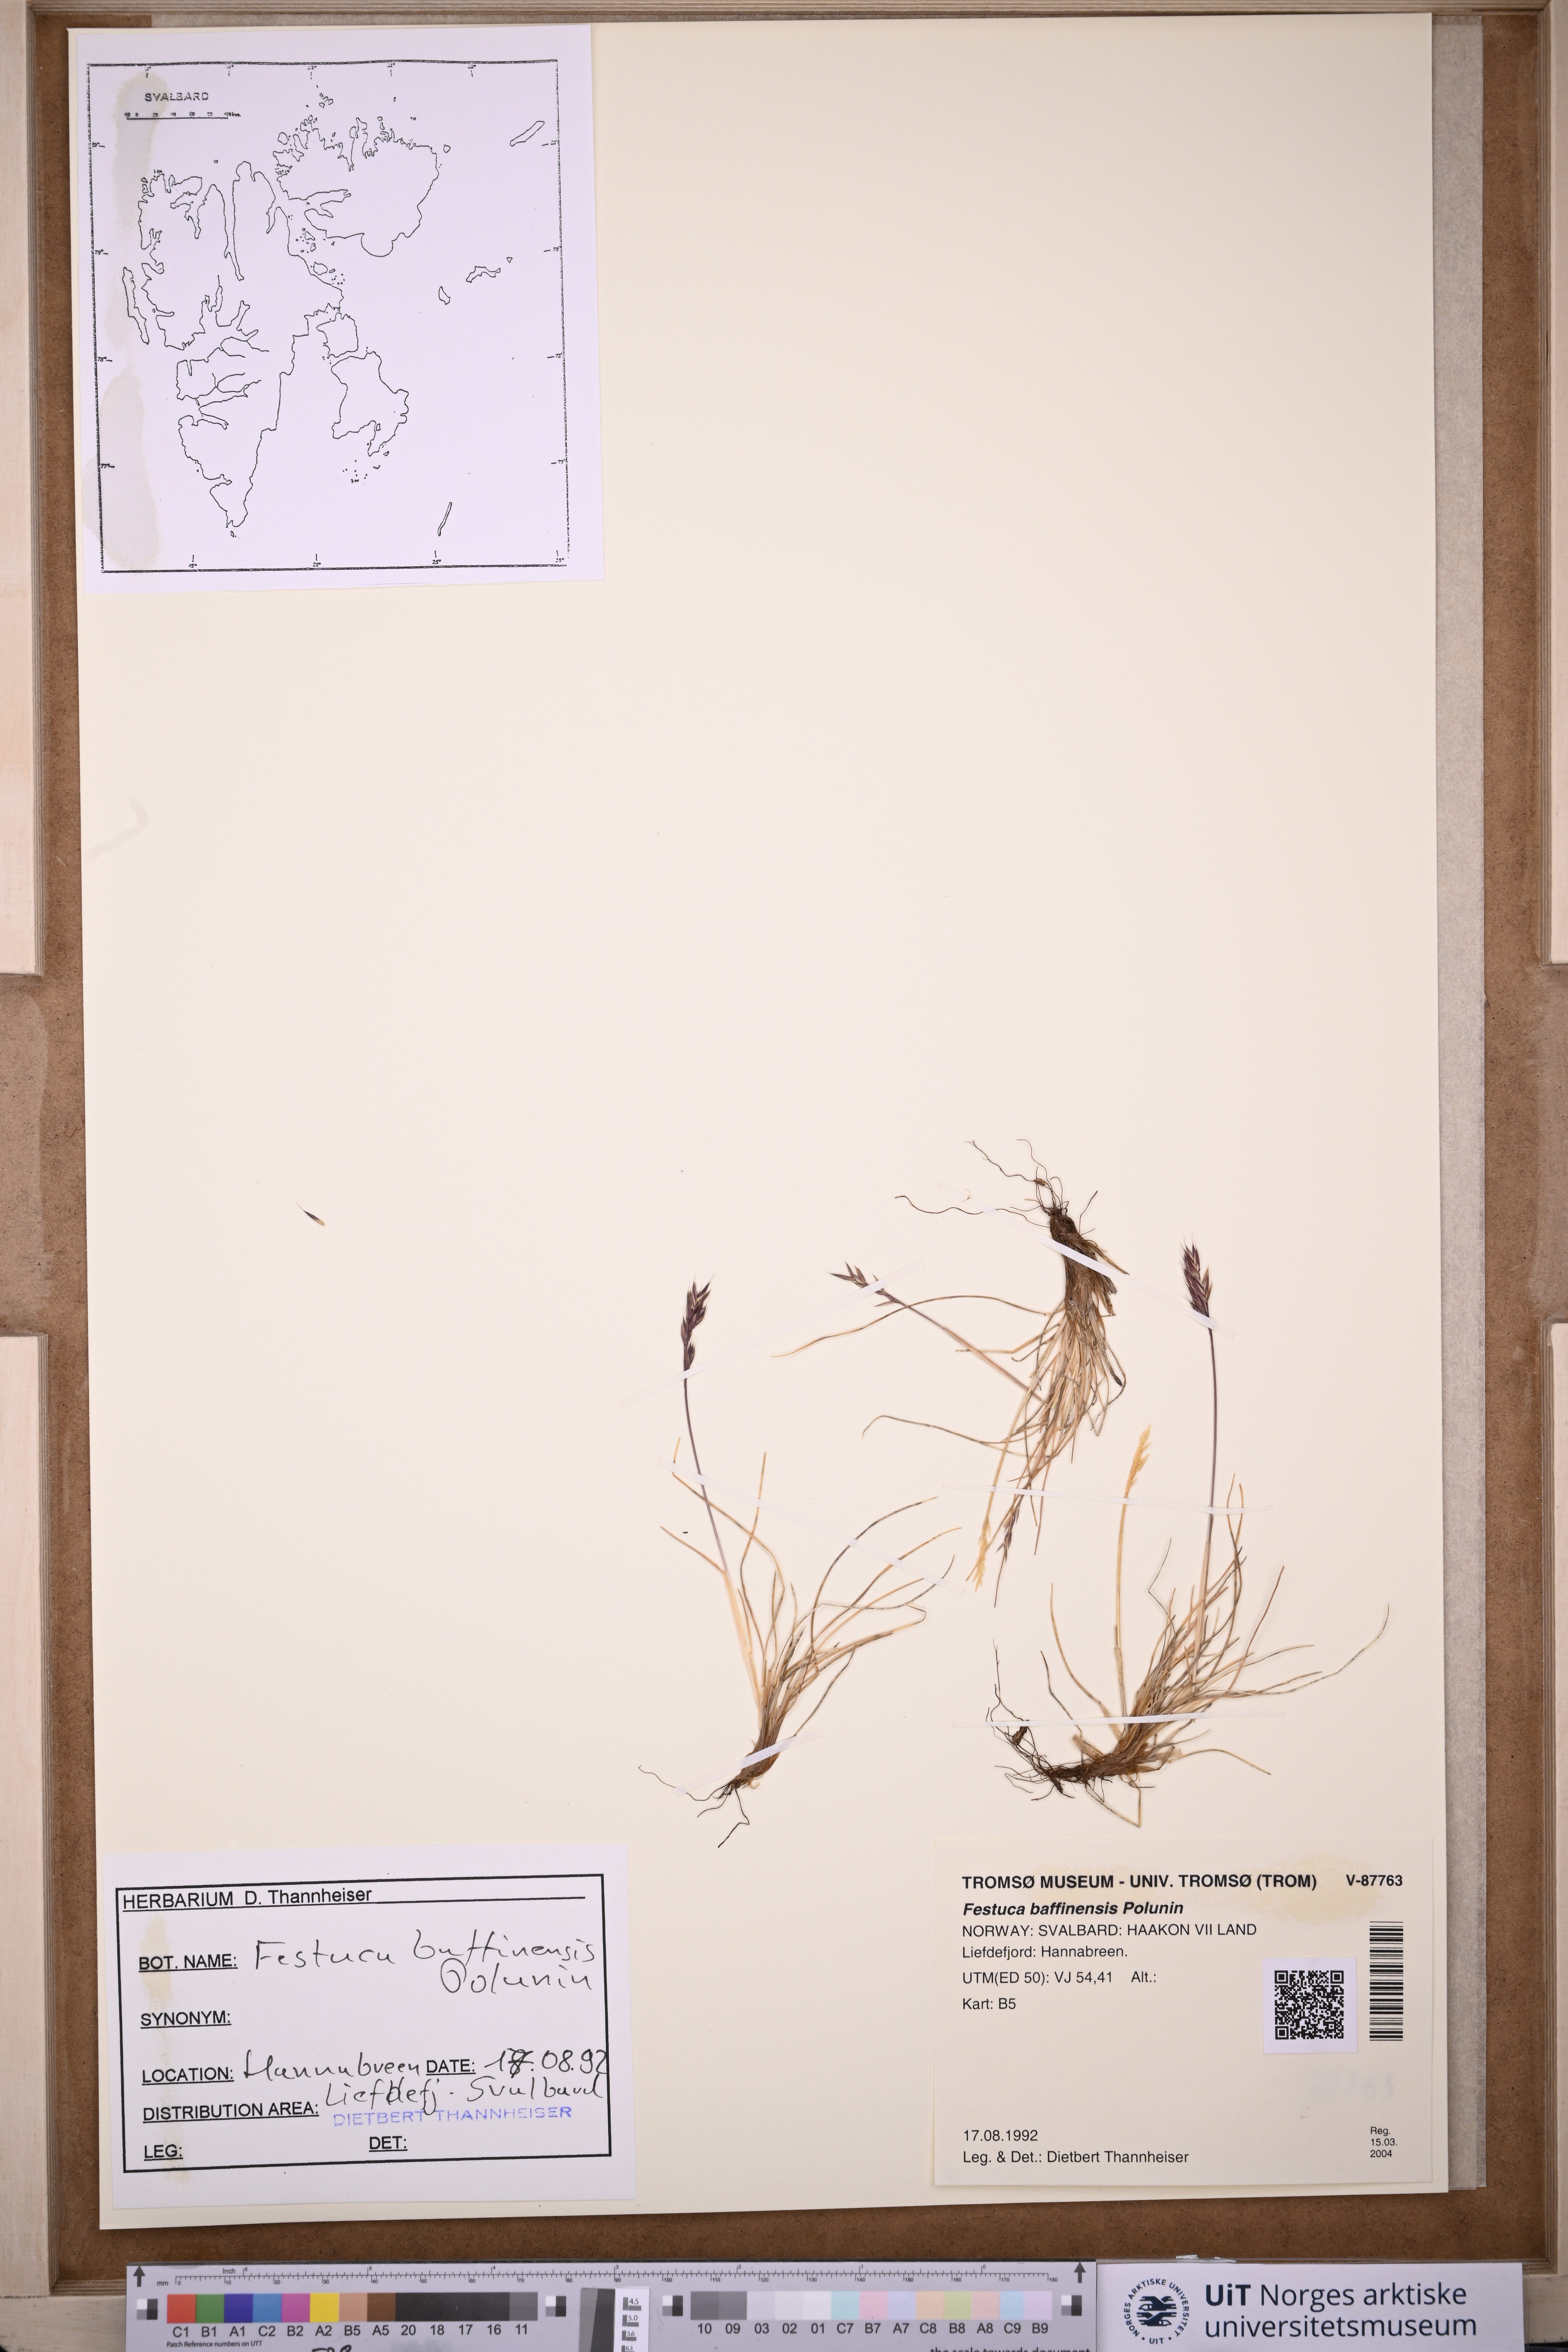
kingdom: Plantae
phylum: Tracheophyta
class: Liliopsida
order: Poales
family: Poaceae
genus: Festuca
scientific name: Festuca baffinensis
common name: Baffin island fescue
